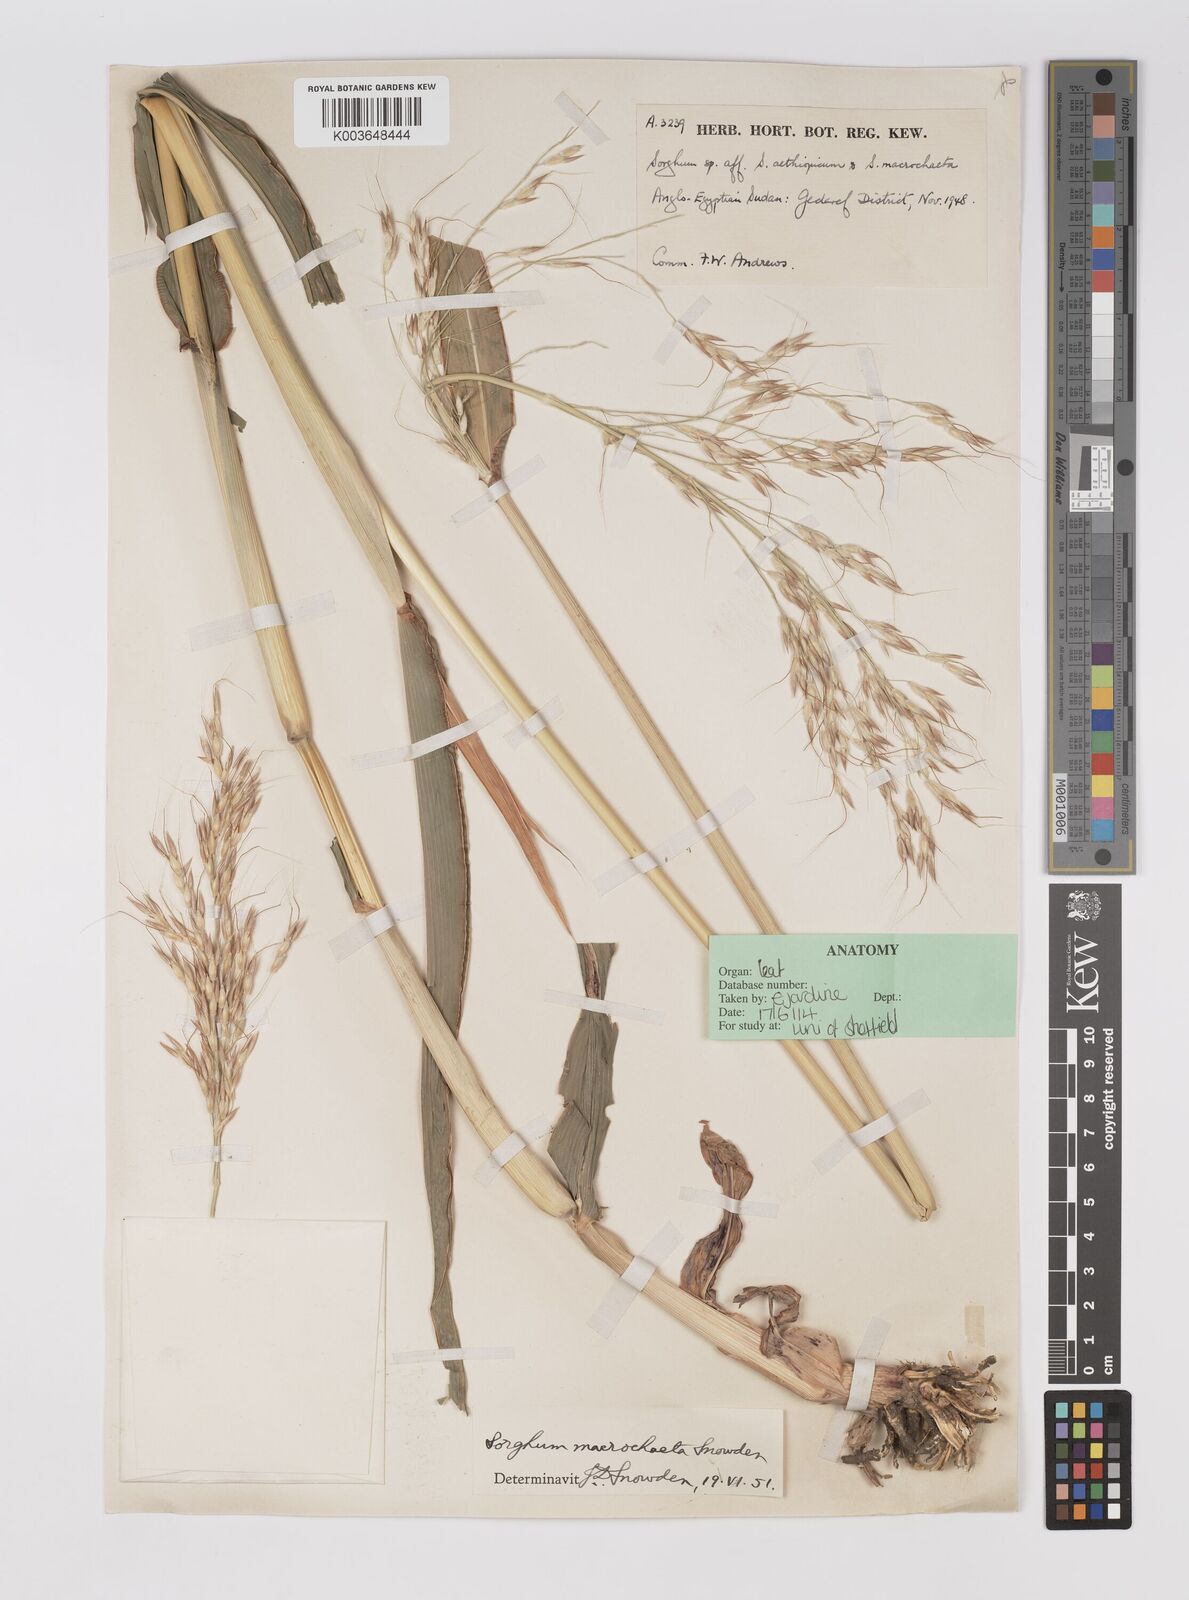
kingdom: Plantae
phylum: Tracheophyta
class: Liliopsida
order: Poales
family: Poaceae
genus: Sorghum
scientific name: Sorghum arundinaceum
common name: Sorghum
